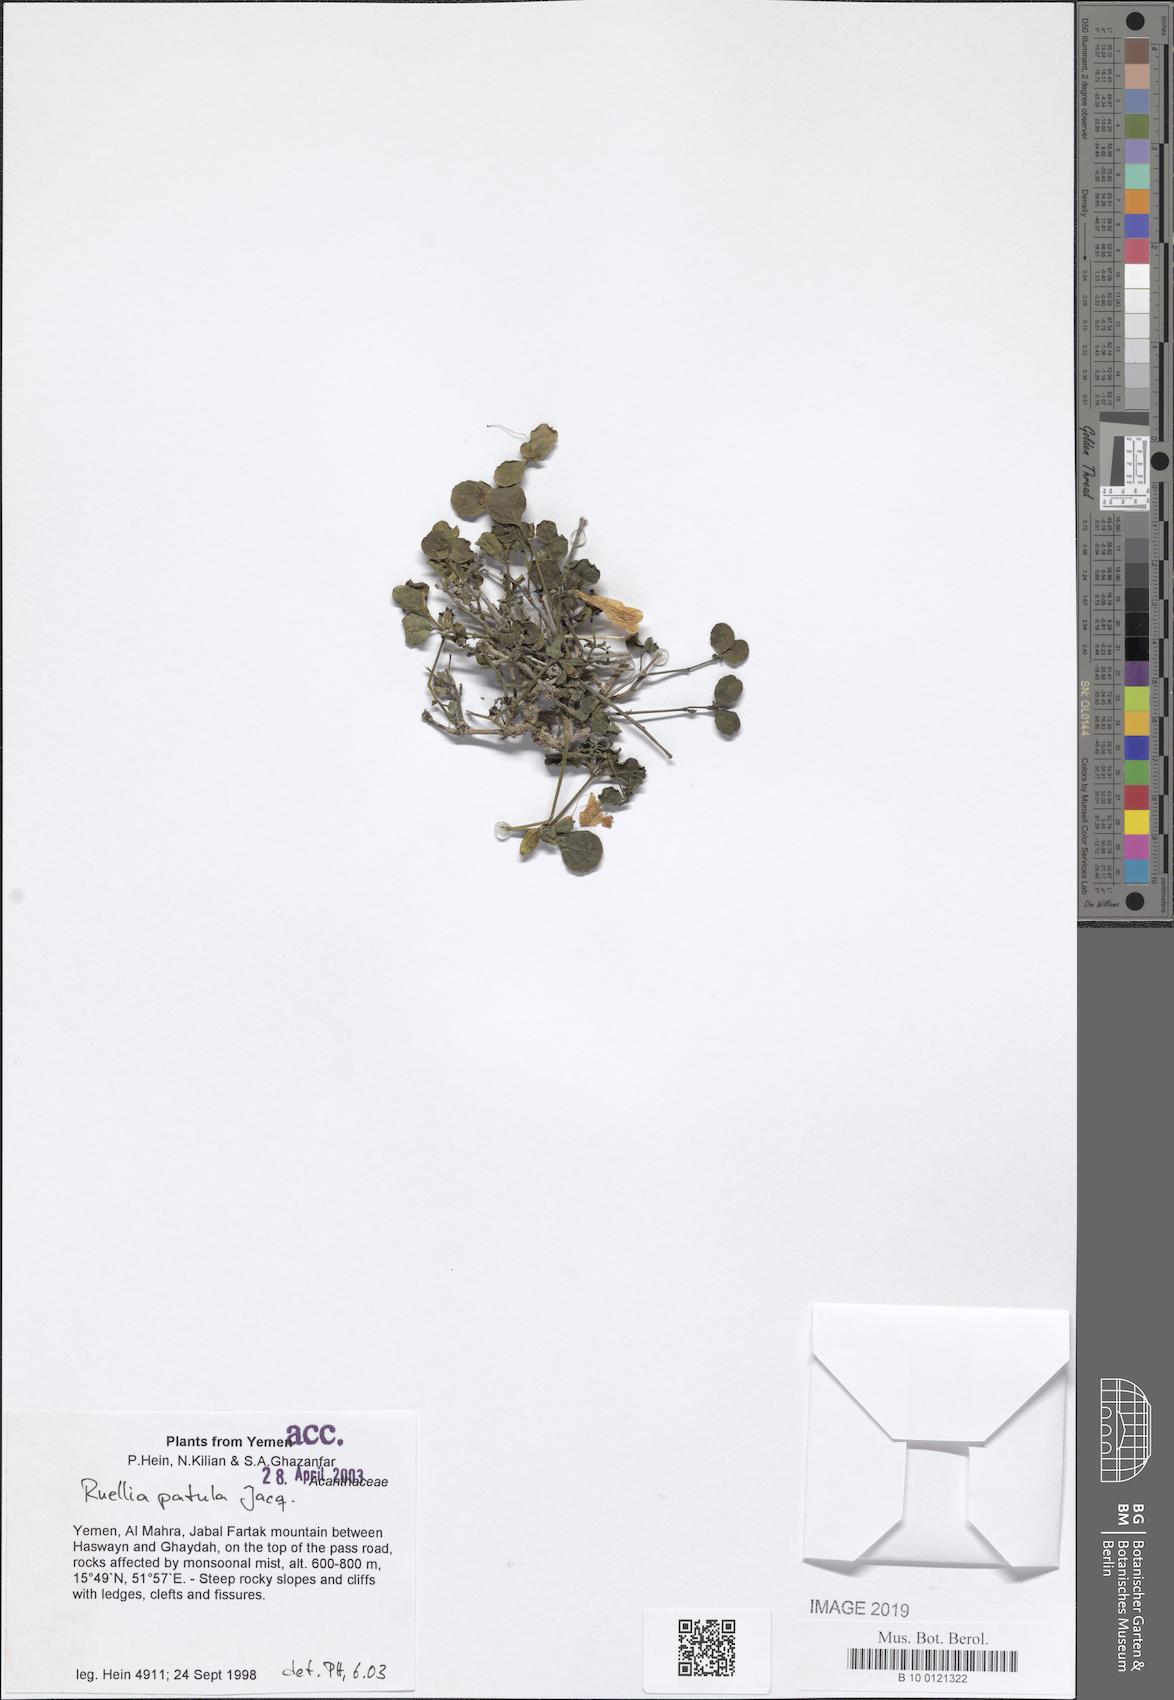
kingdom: Plantae
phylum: Tracheophyta
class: Magnoliopsida
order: Lamiales
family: Acanthaceae
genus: Ruellia
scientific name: Ruellia patula
